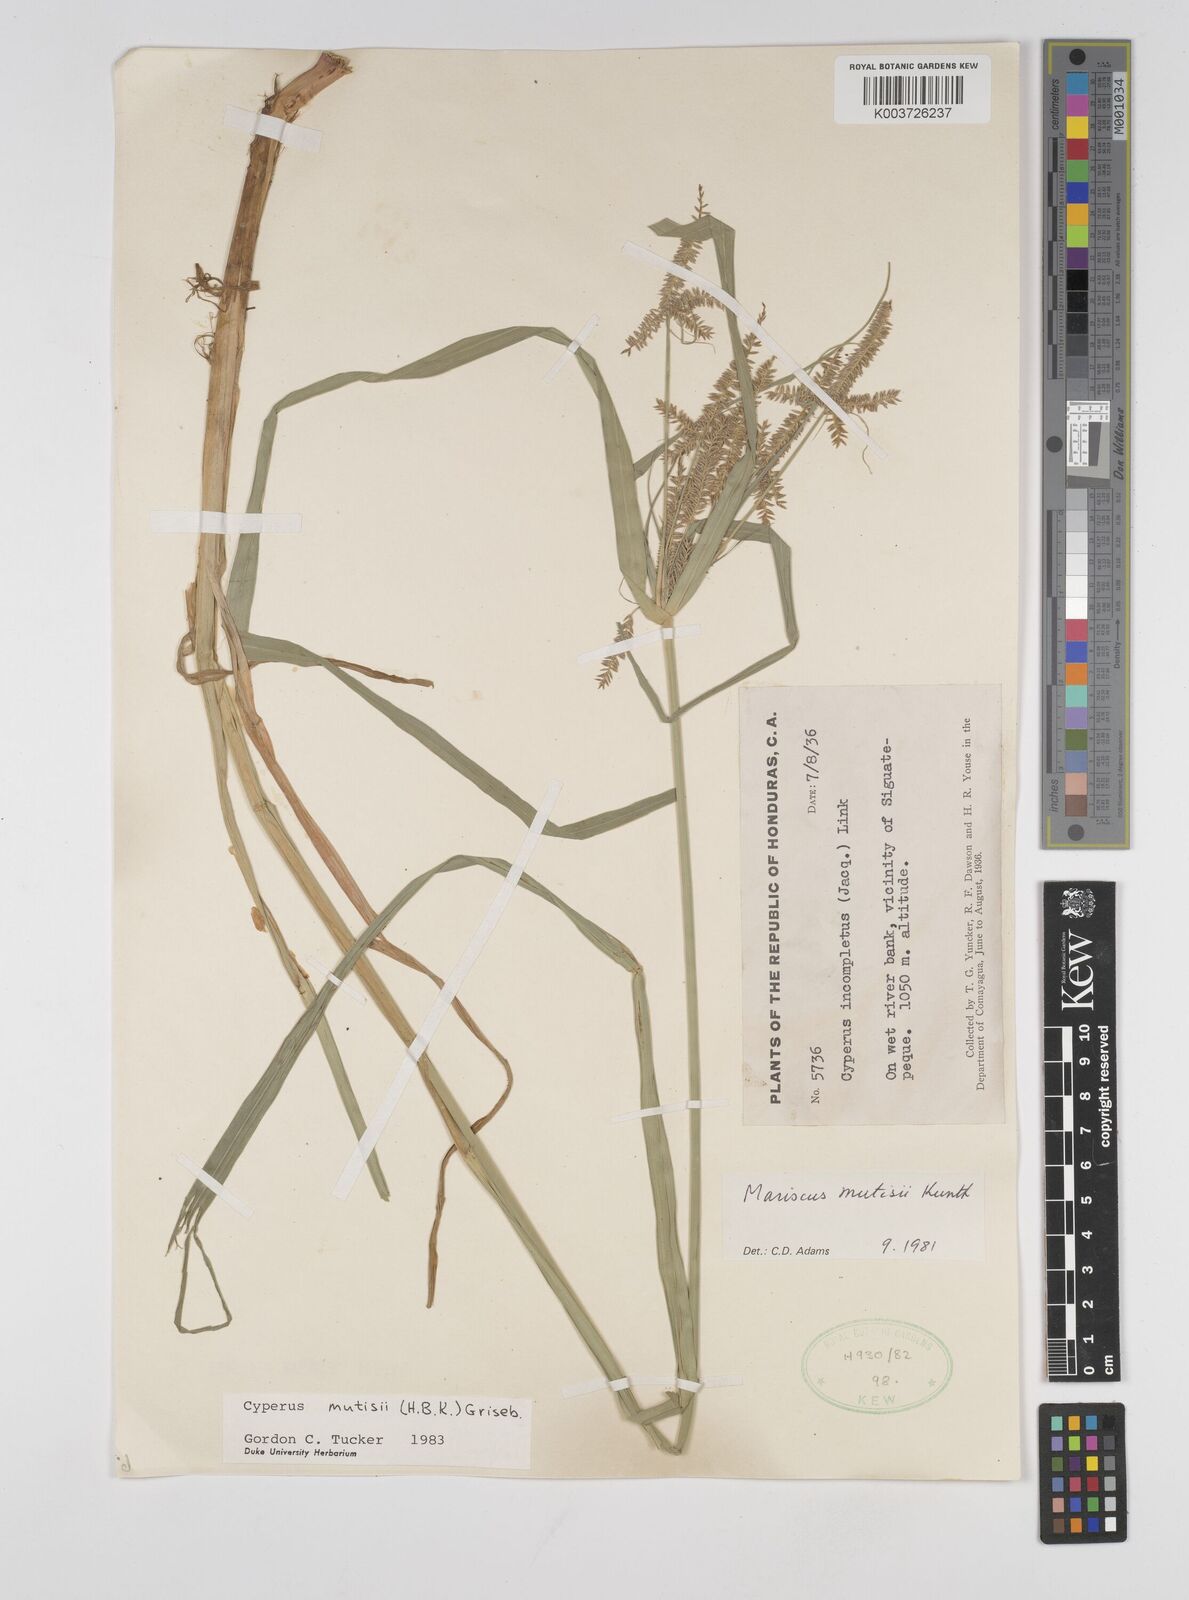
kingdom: Plantae
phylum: Tracheophyta
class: Liliopsida
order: Poales
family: Cyperaceae
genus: Cyperus
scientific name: Cyperus mutisii
